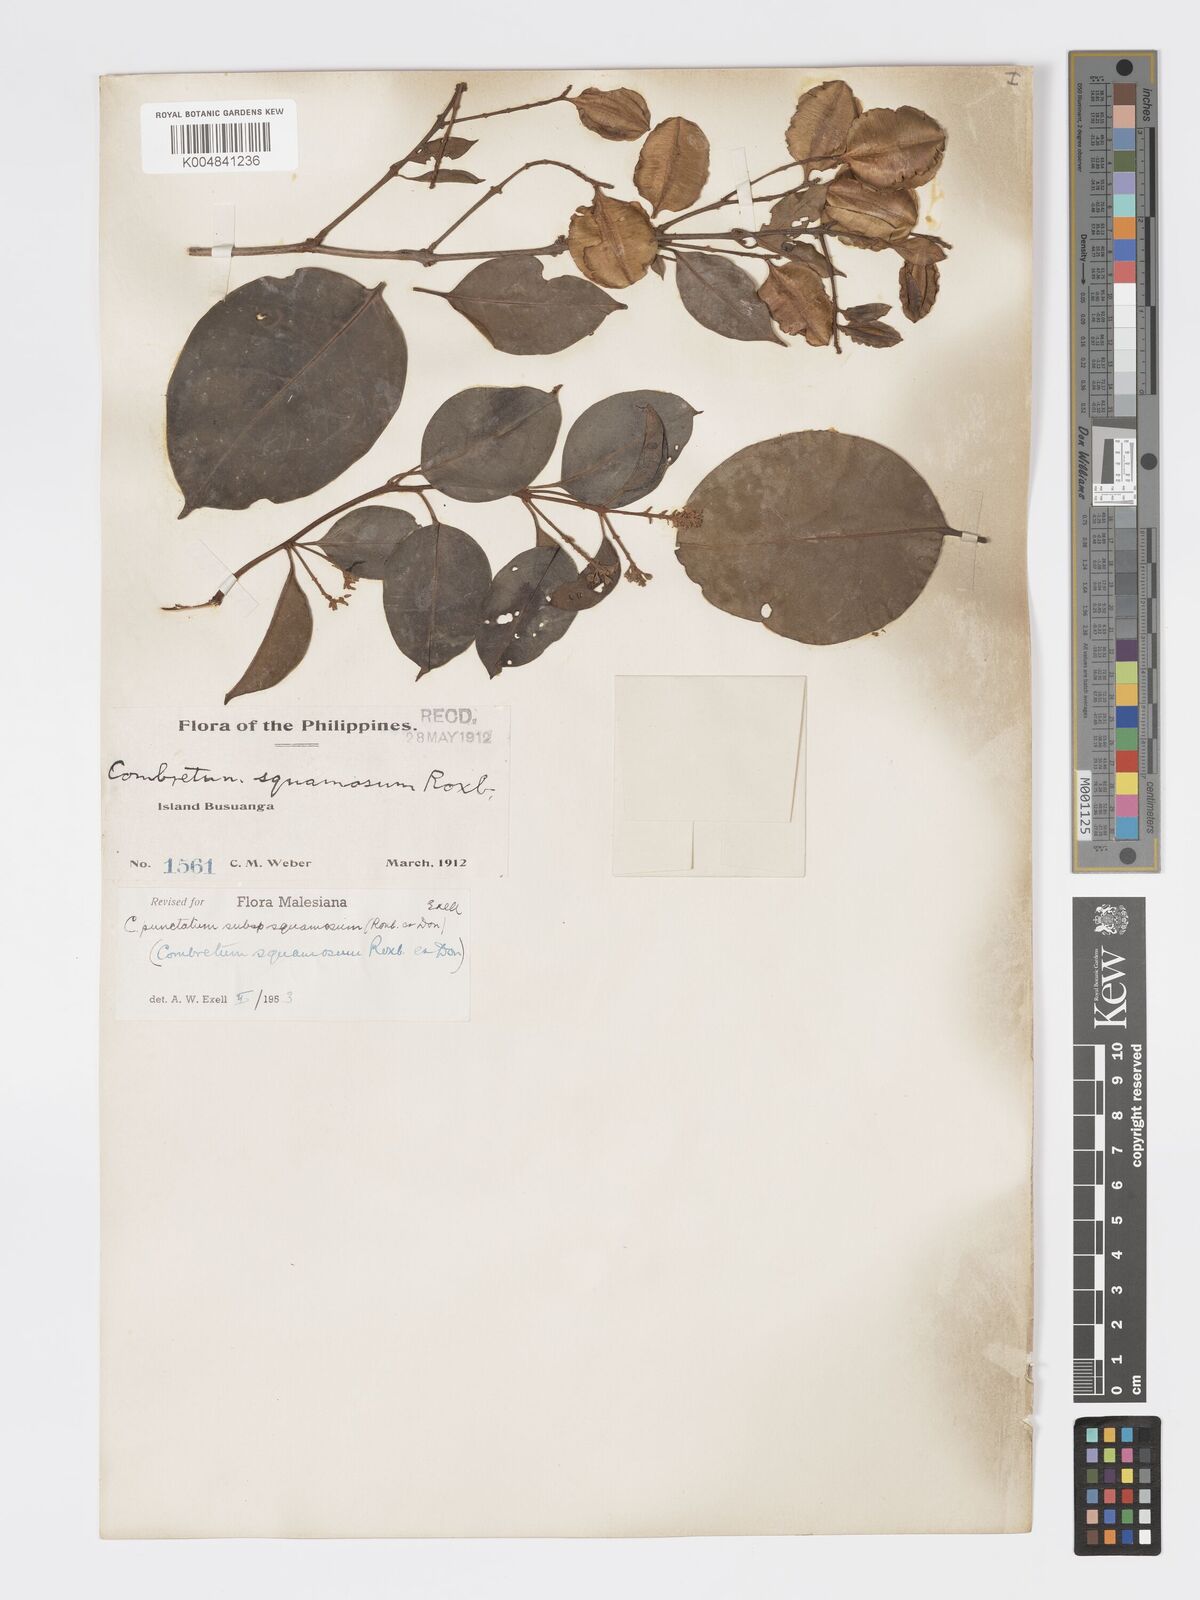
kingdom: Plantae
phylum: Tracheophyta
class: Magnoliopsida
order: Myrtales
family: Combretaceae
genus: Combretum
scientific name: Combretum
